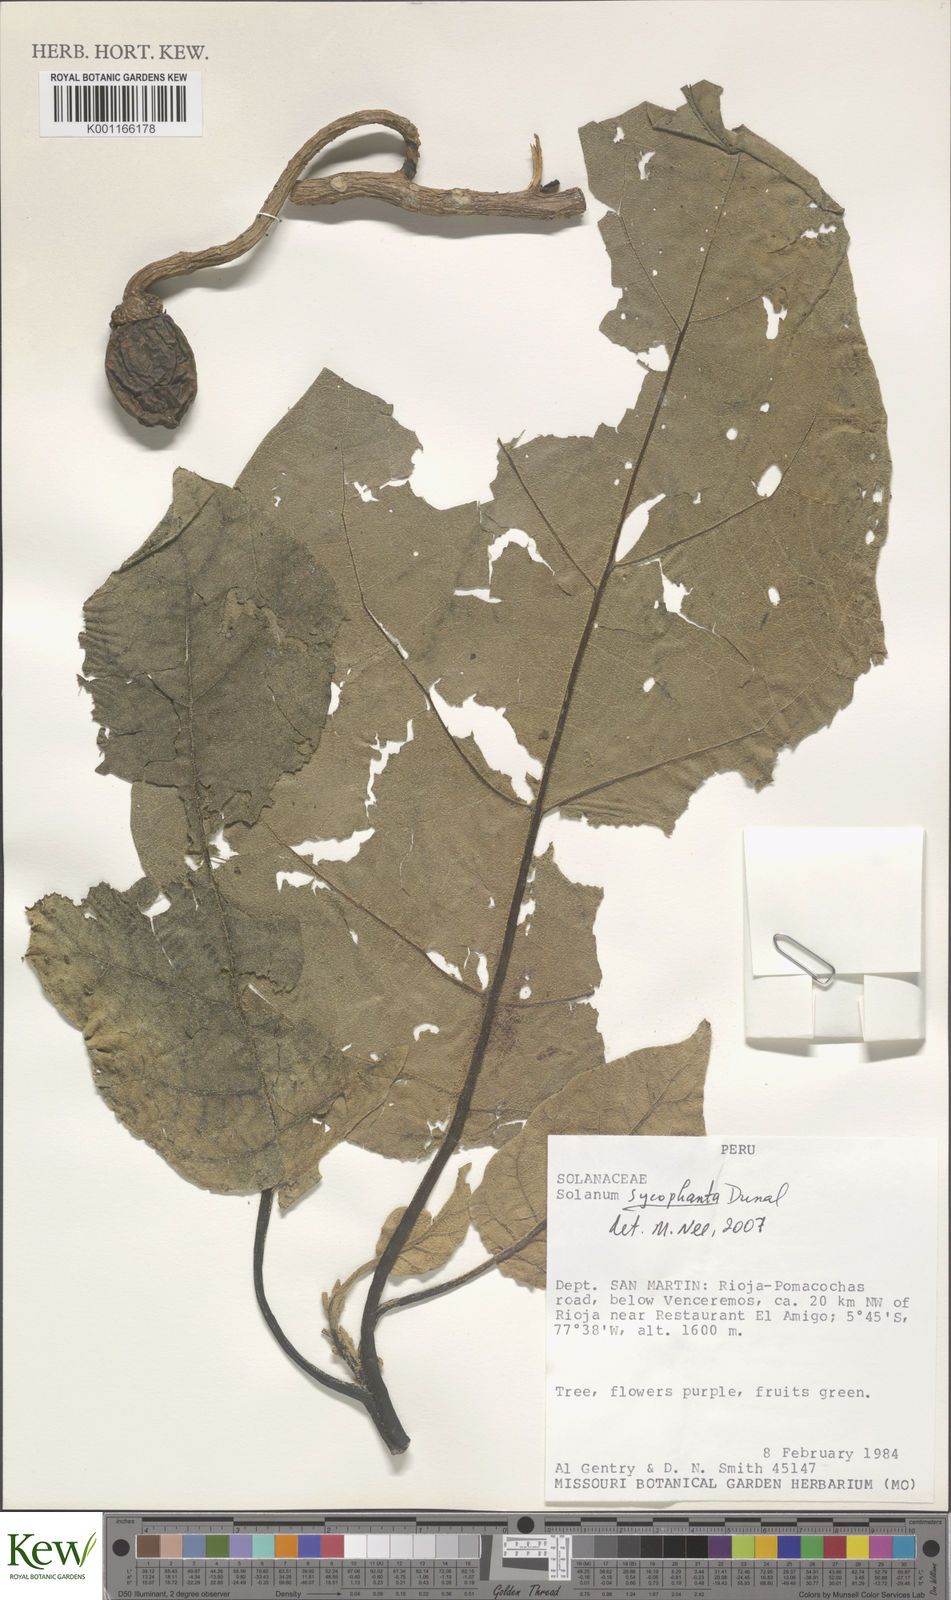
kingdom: Plantae
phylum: Tracheophyta
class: Magnoliopsida
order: Solanales
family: Solanaceae
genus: Solanum
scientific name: Solanum sycophanta
